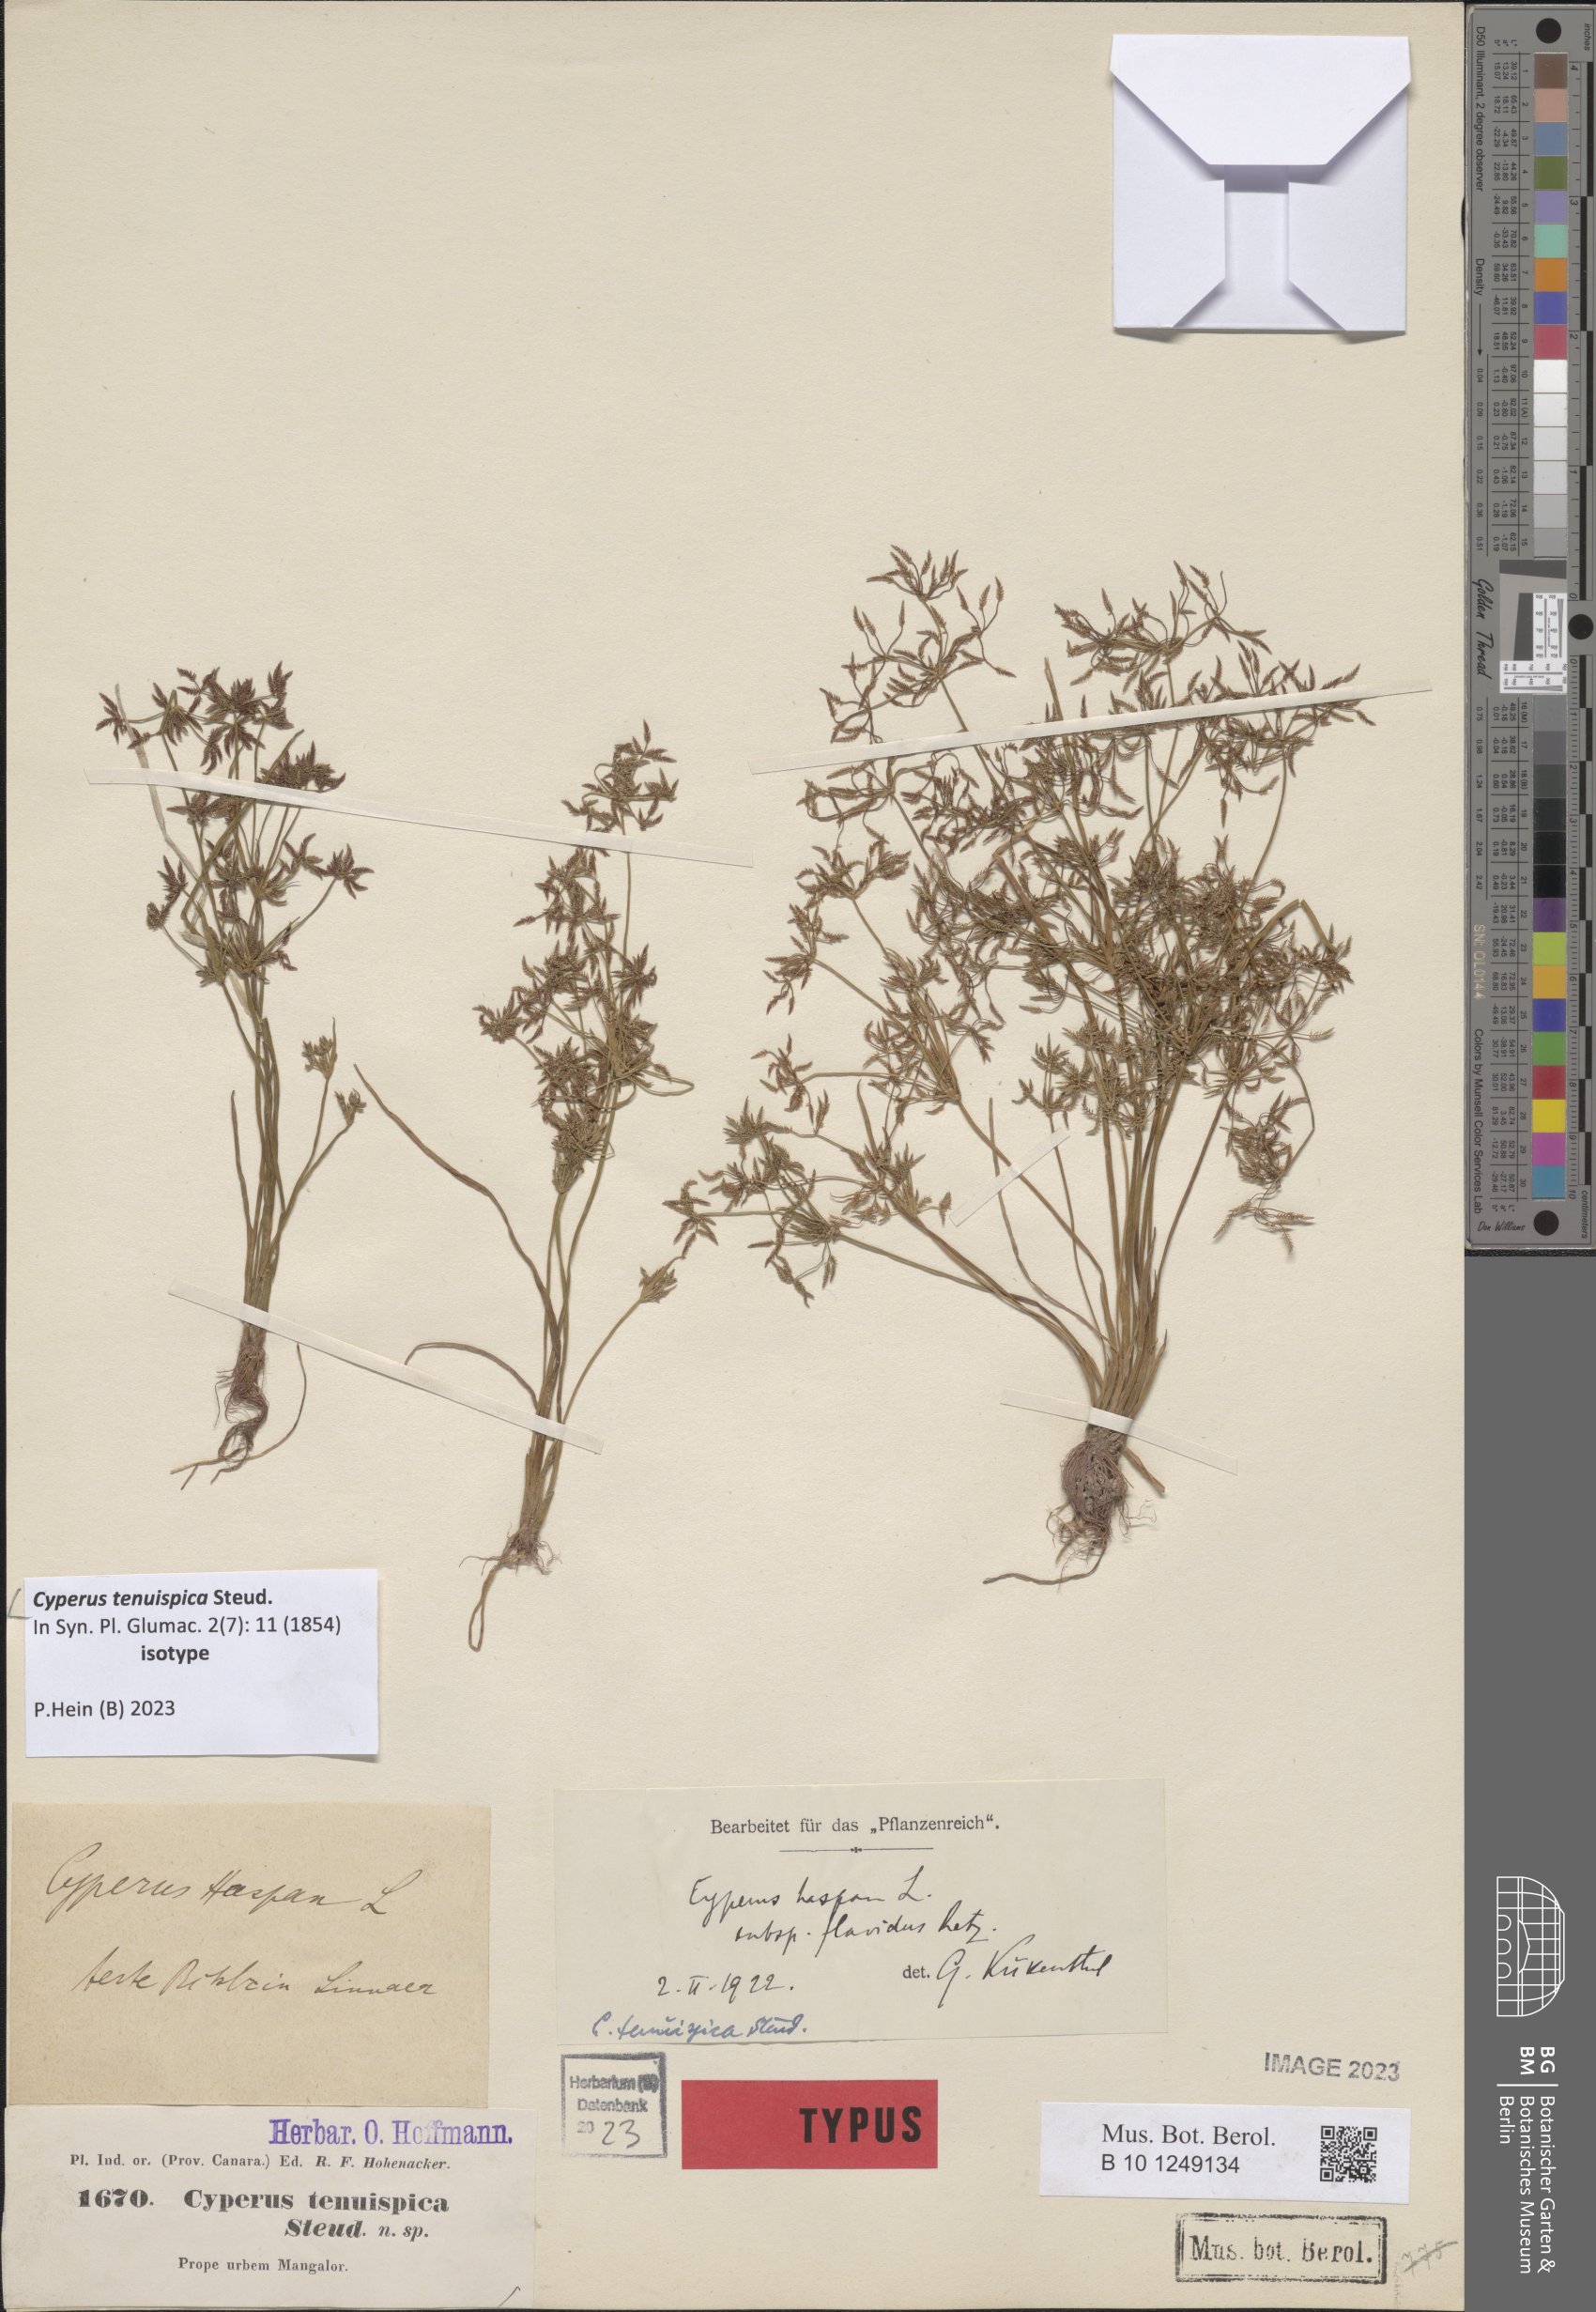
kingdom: Plantae
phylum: Tracheophyta
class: Liliopsida
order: Poales
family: Cyperaceae
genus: Cyperus
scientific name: Cyperus tenuispica
